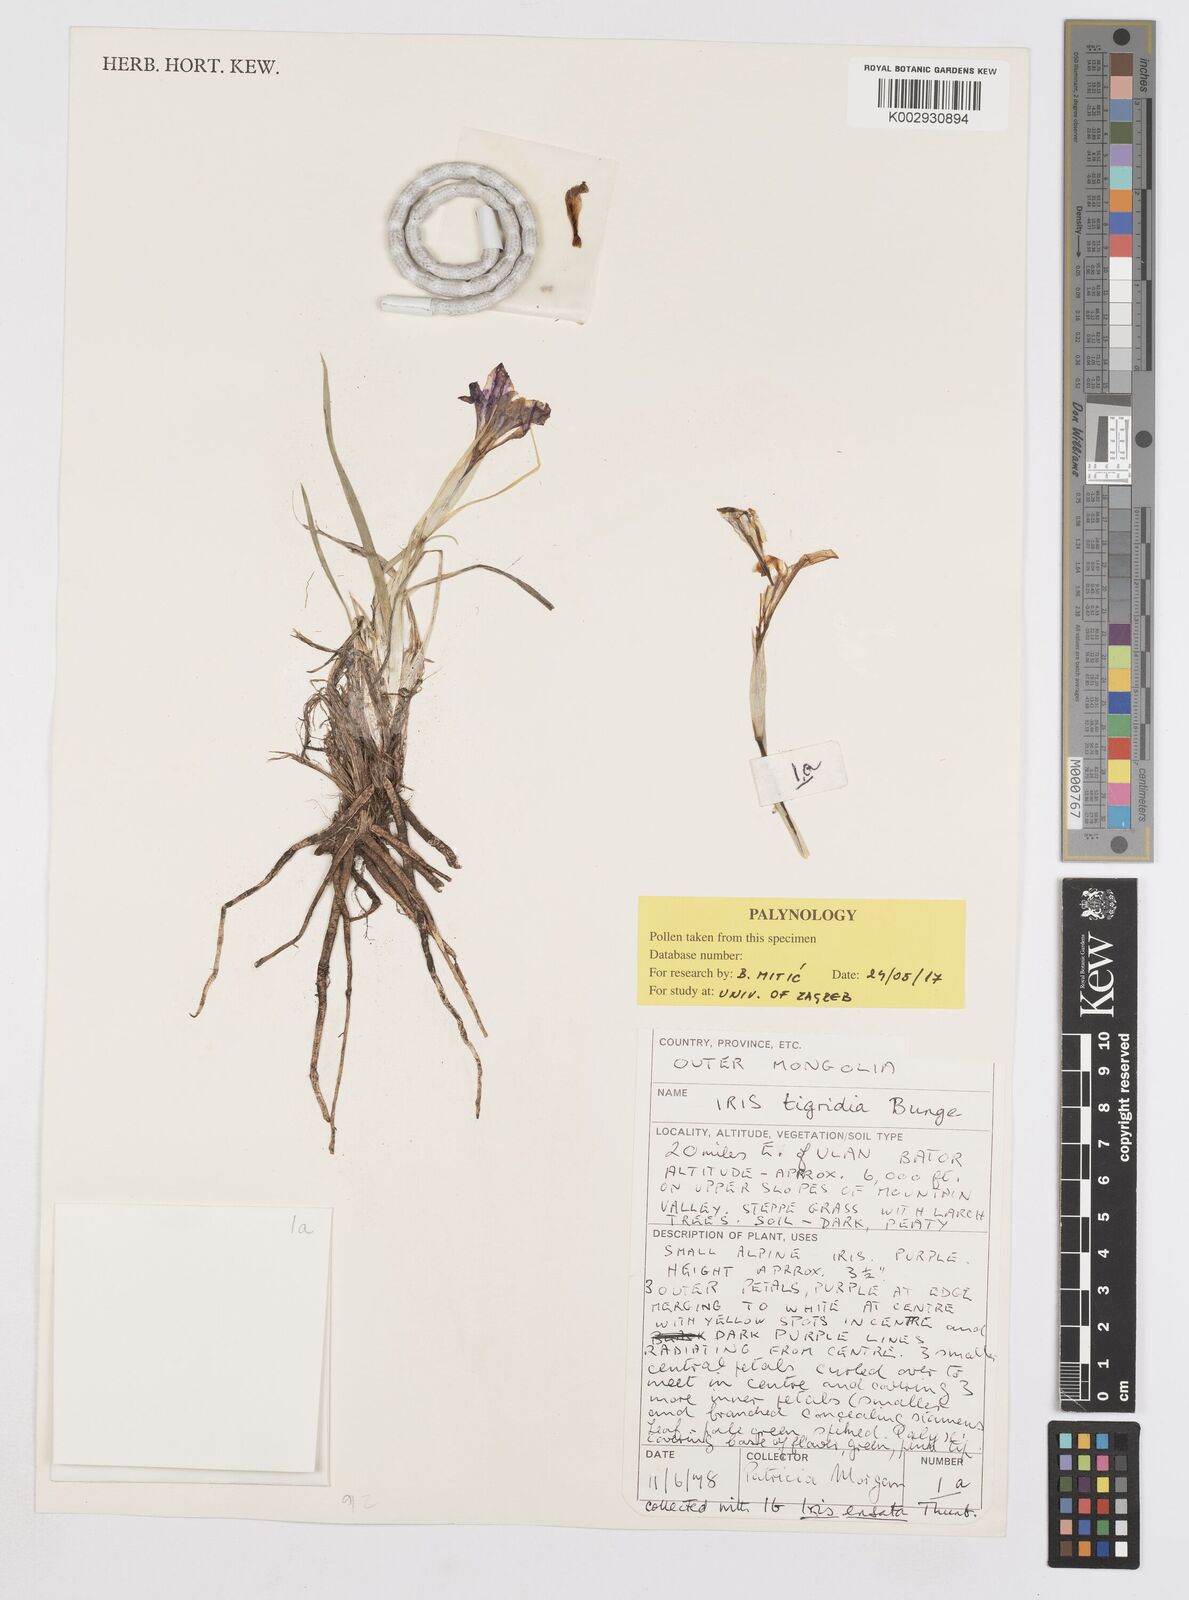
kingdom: Plantae
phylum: Tracheophyta
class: Liliopsida
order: Asparagales
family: Iridaceae
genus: Iris
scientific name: Iris tigridia
